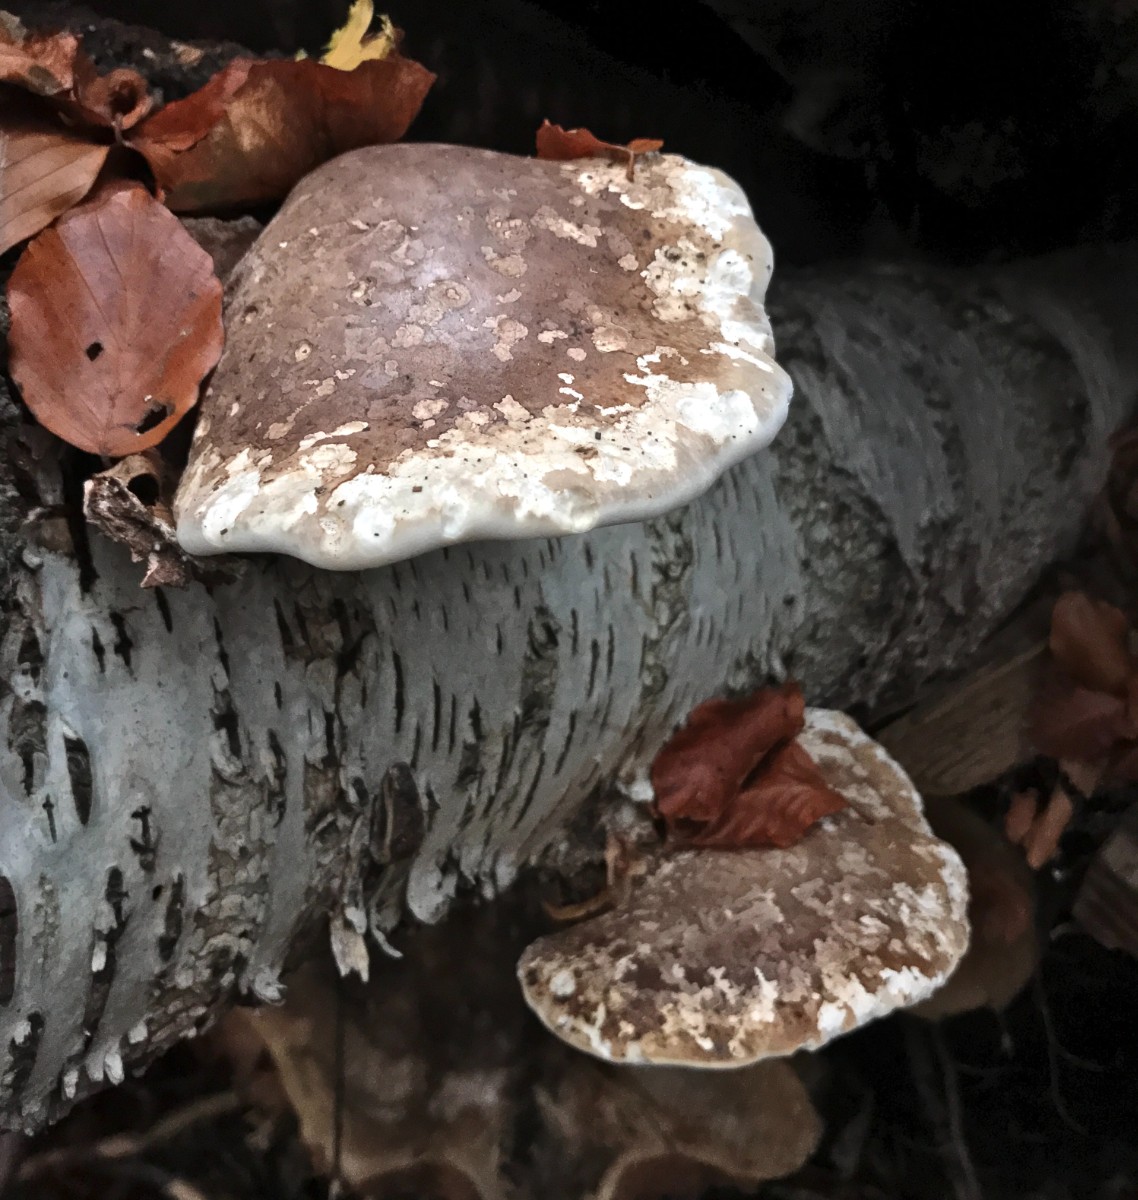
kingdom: Fungi
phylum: Basidiomycota
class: Agaricomycetes
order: Polyporales
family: Fomitopsidaceae
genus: Fomitopsis
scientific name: Fomitopsis betulina
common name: birkeporesvamp
